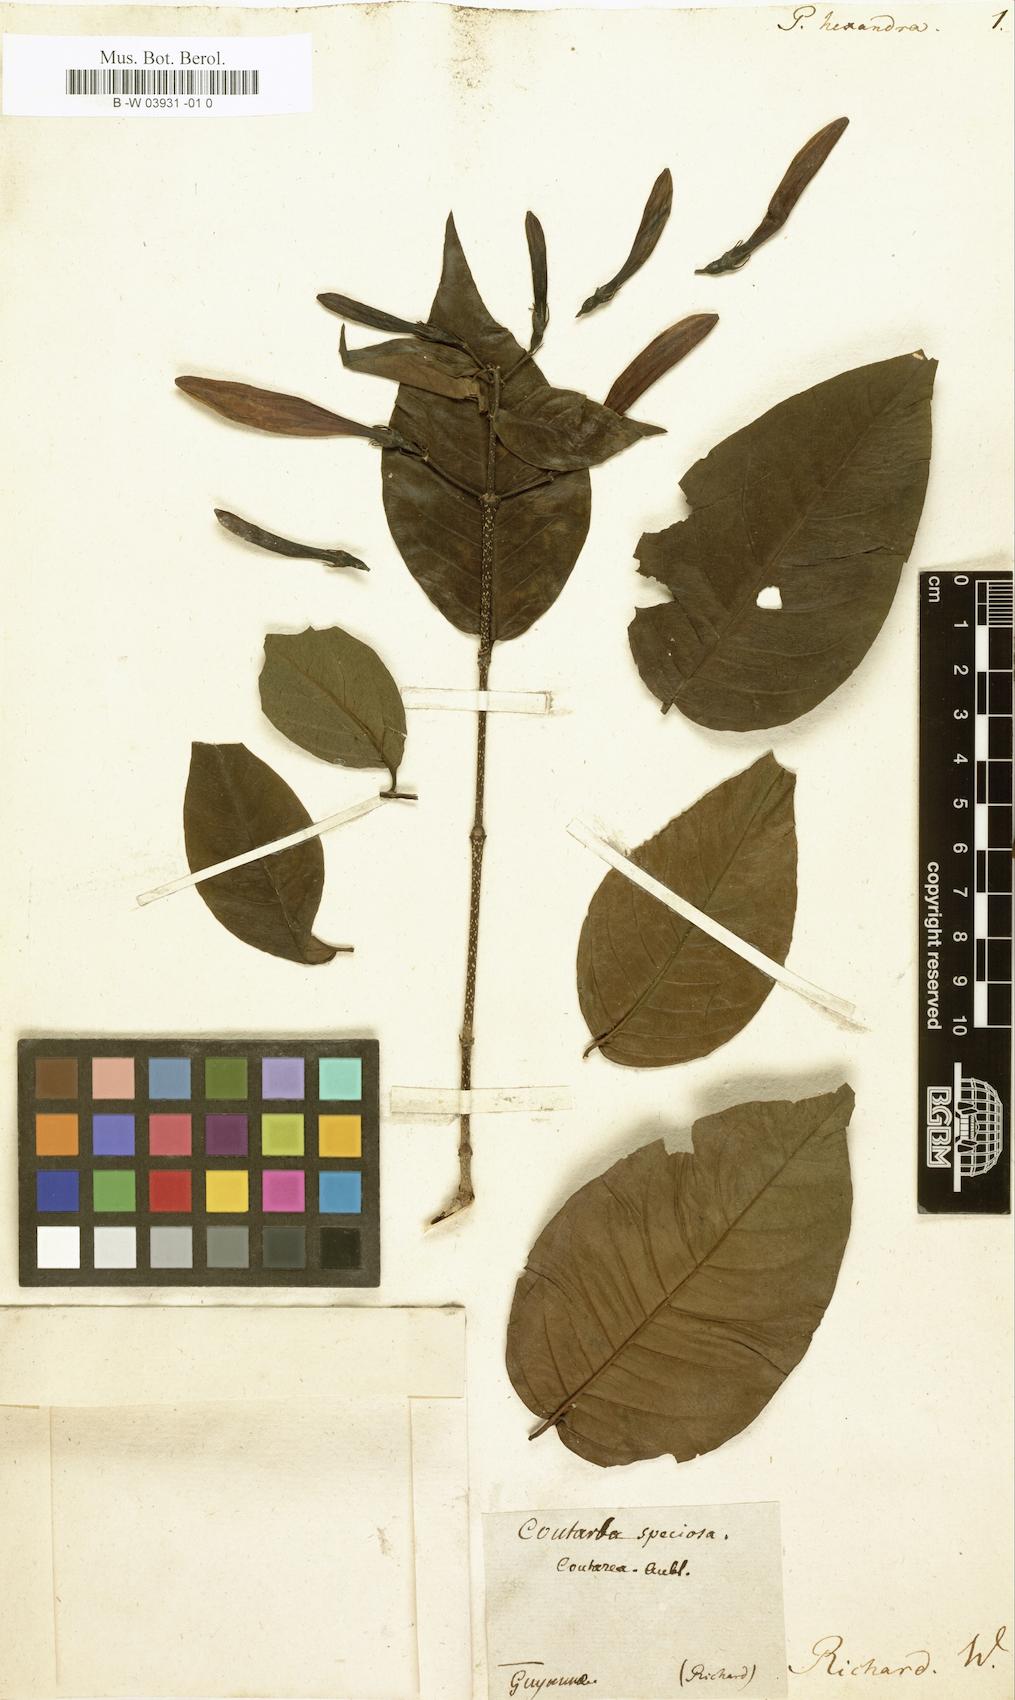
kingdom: Plantae
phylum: Tracheophyta
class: Magnoliopsida
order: Gentianales
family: Rubiaceae
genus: Coutarea
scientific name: Coutarea hexandra
